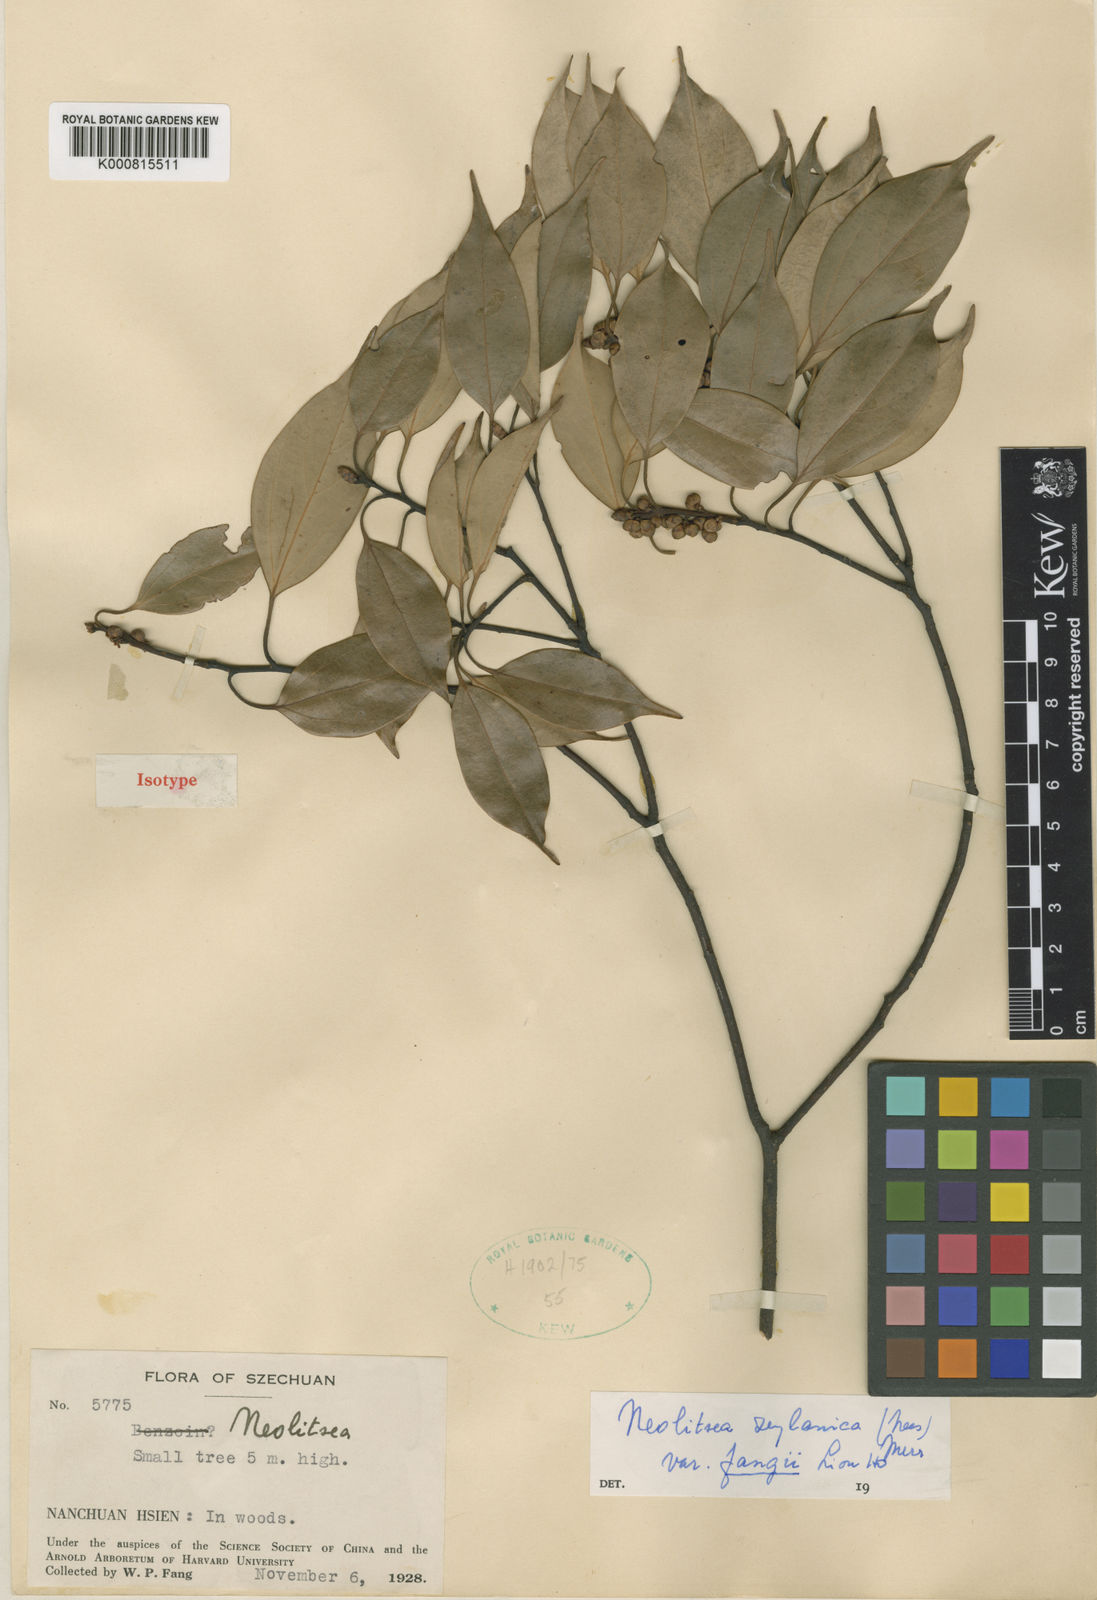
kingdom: Plantae
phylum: Tracheophyta
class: Magnoliopsida
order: Laurales
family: Lauraceae
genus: Neolitsea
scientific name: Neolitsea foliosa
